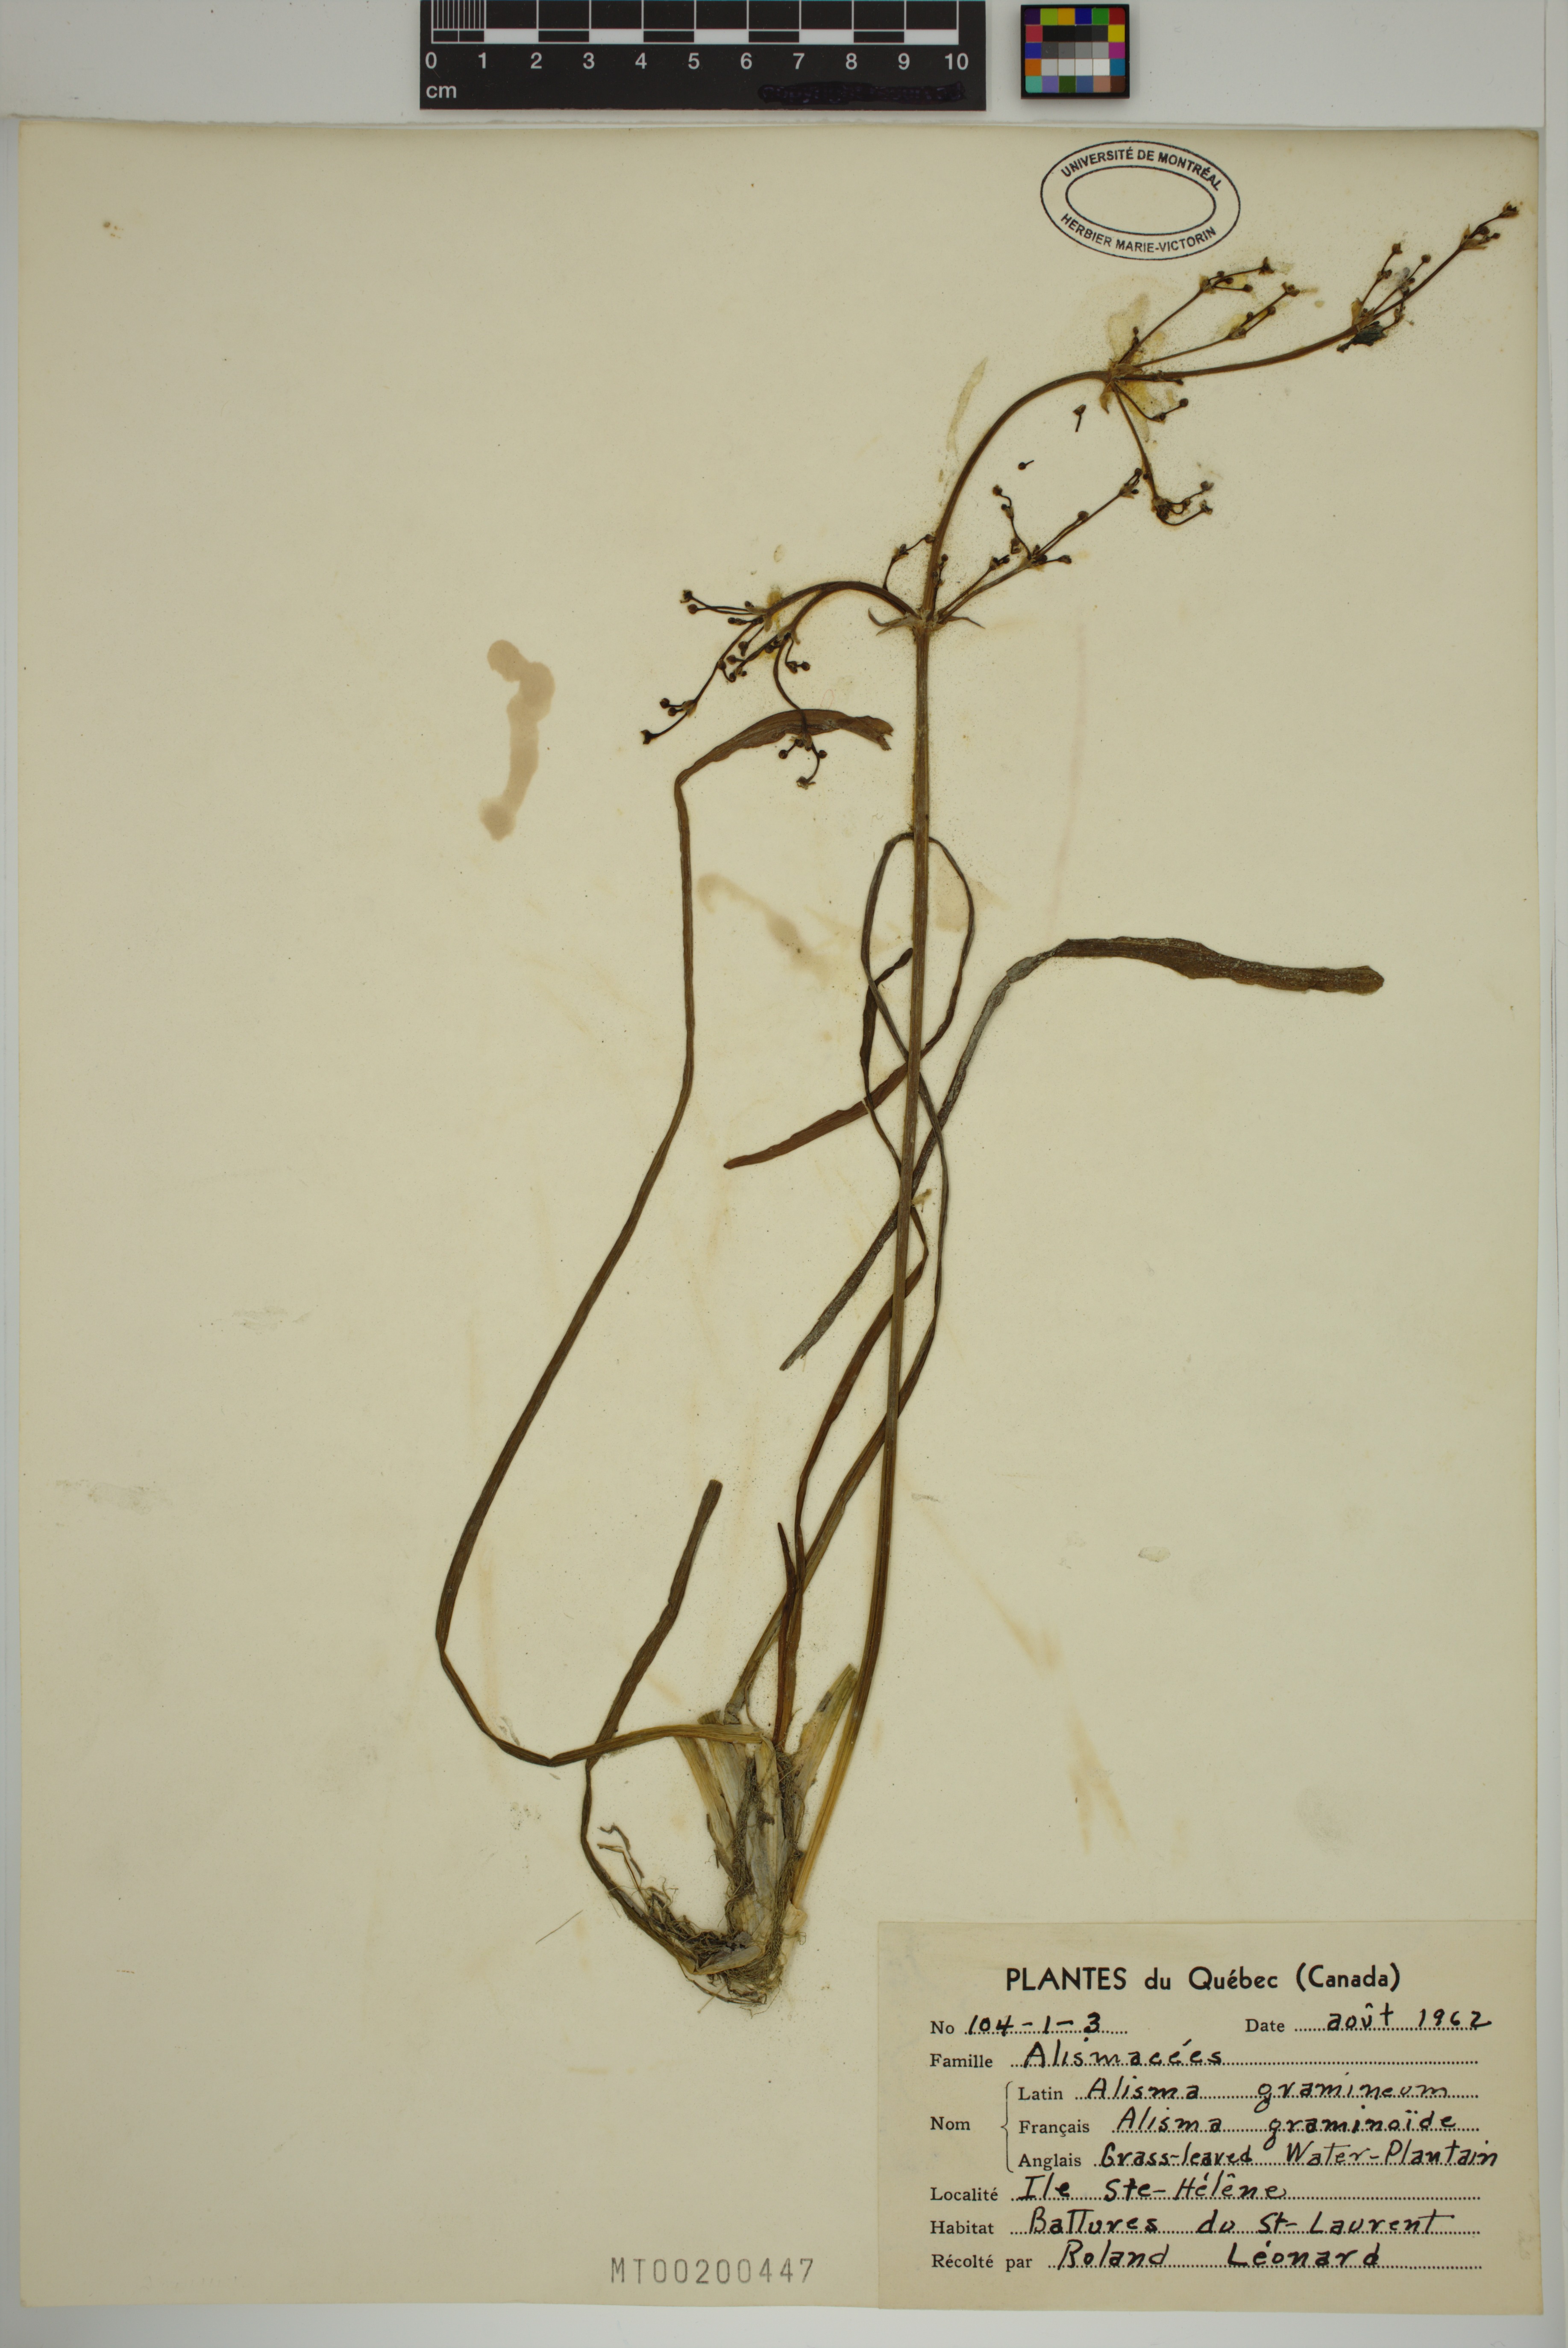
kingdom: Plantae
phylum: Tracheophyta
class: Liliopsida
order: Alismatales
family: Alismataceae
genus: Alisma
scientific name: Alisma gramineum
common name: Ribbon-leaved water-plantain
